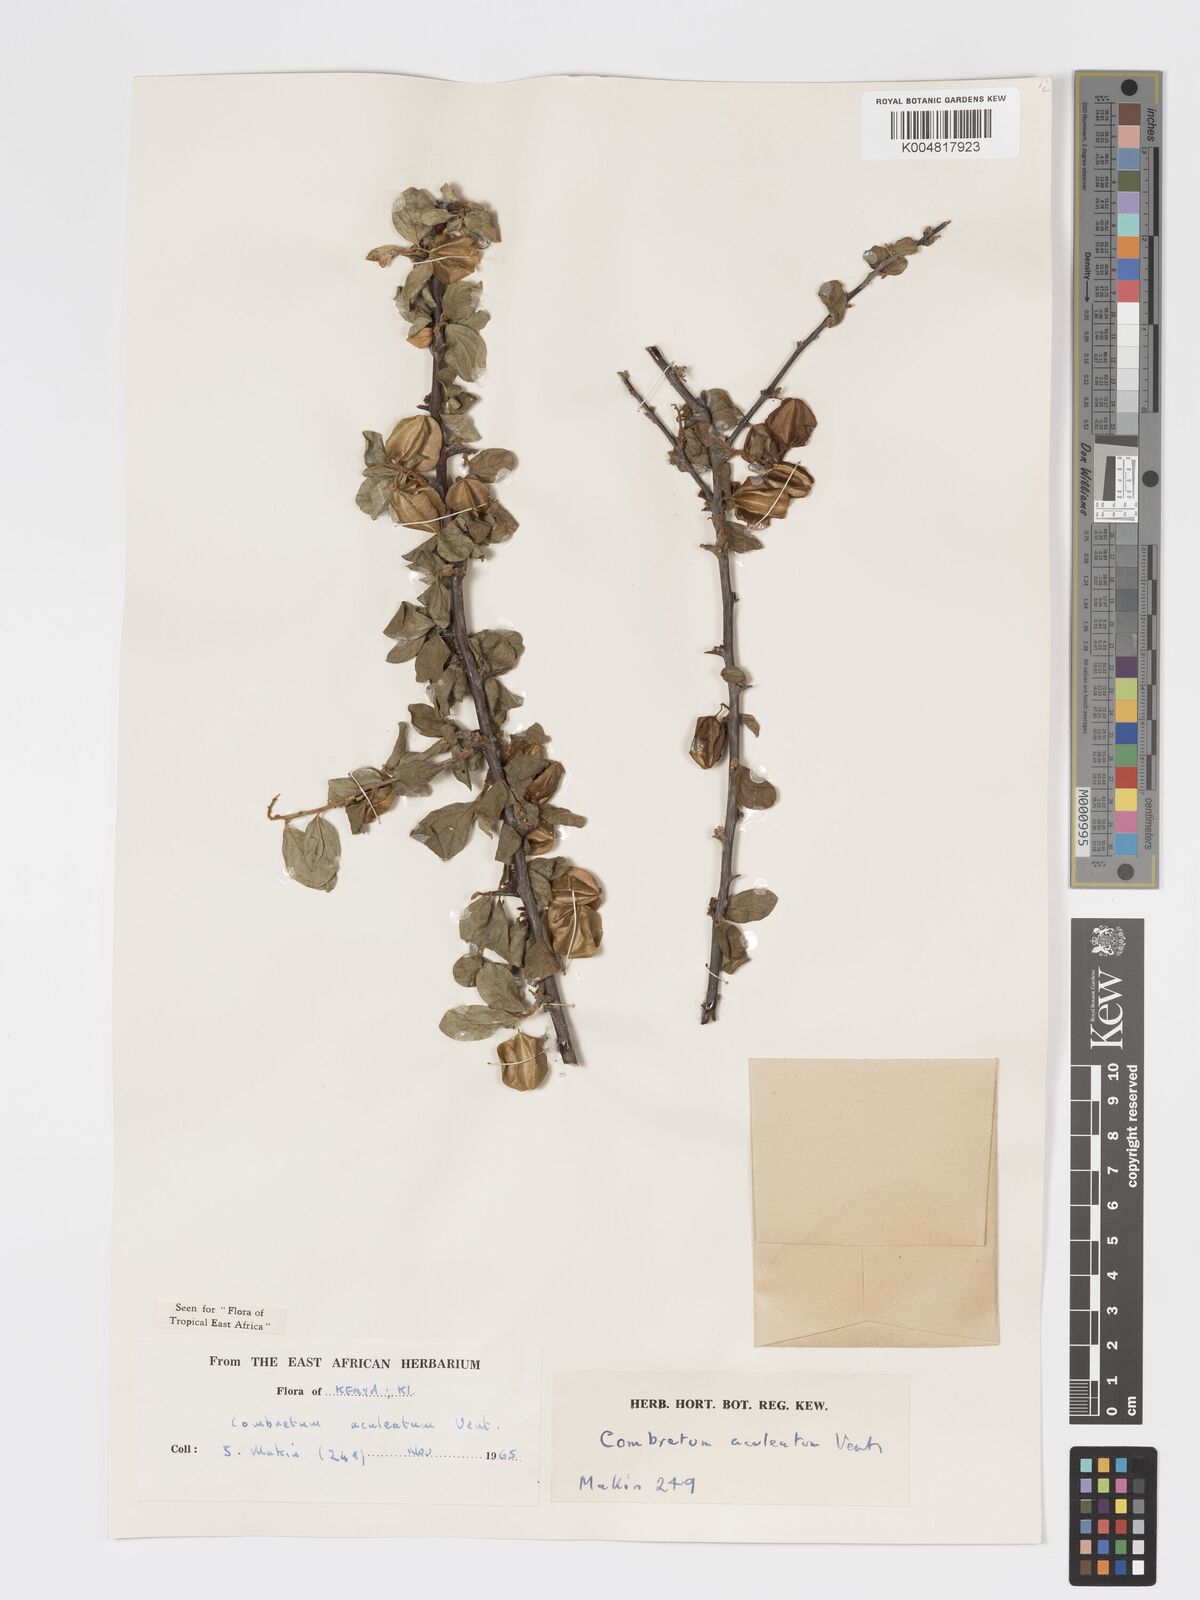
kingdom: Plantae
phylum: Tracheophyta
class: Magnoliopsida
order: Myrtales
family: Combretaceae
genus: Combretum
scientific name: Combretum aculeatum
